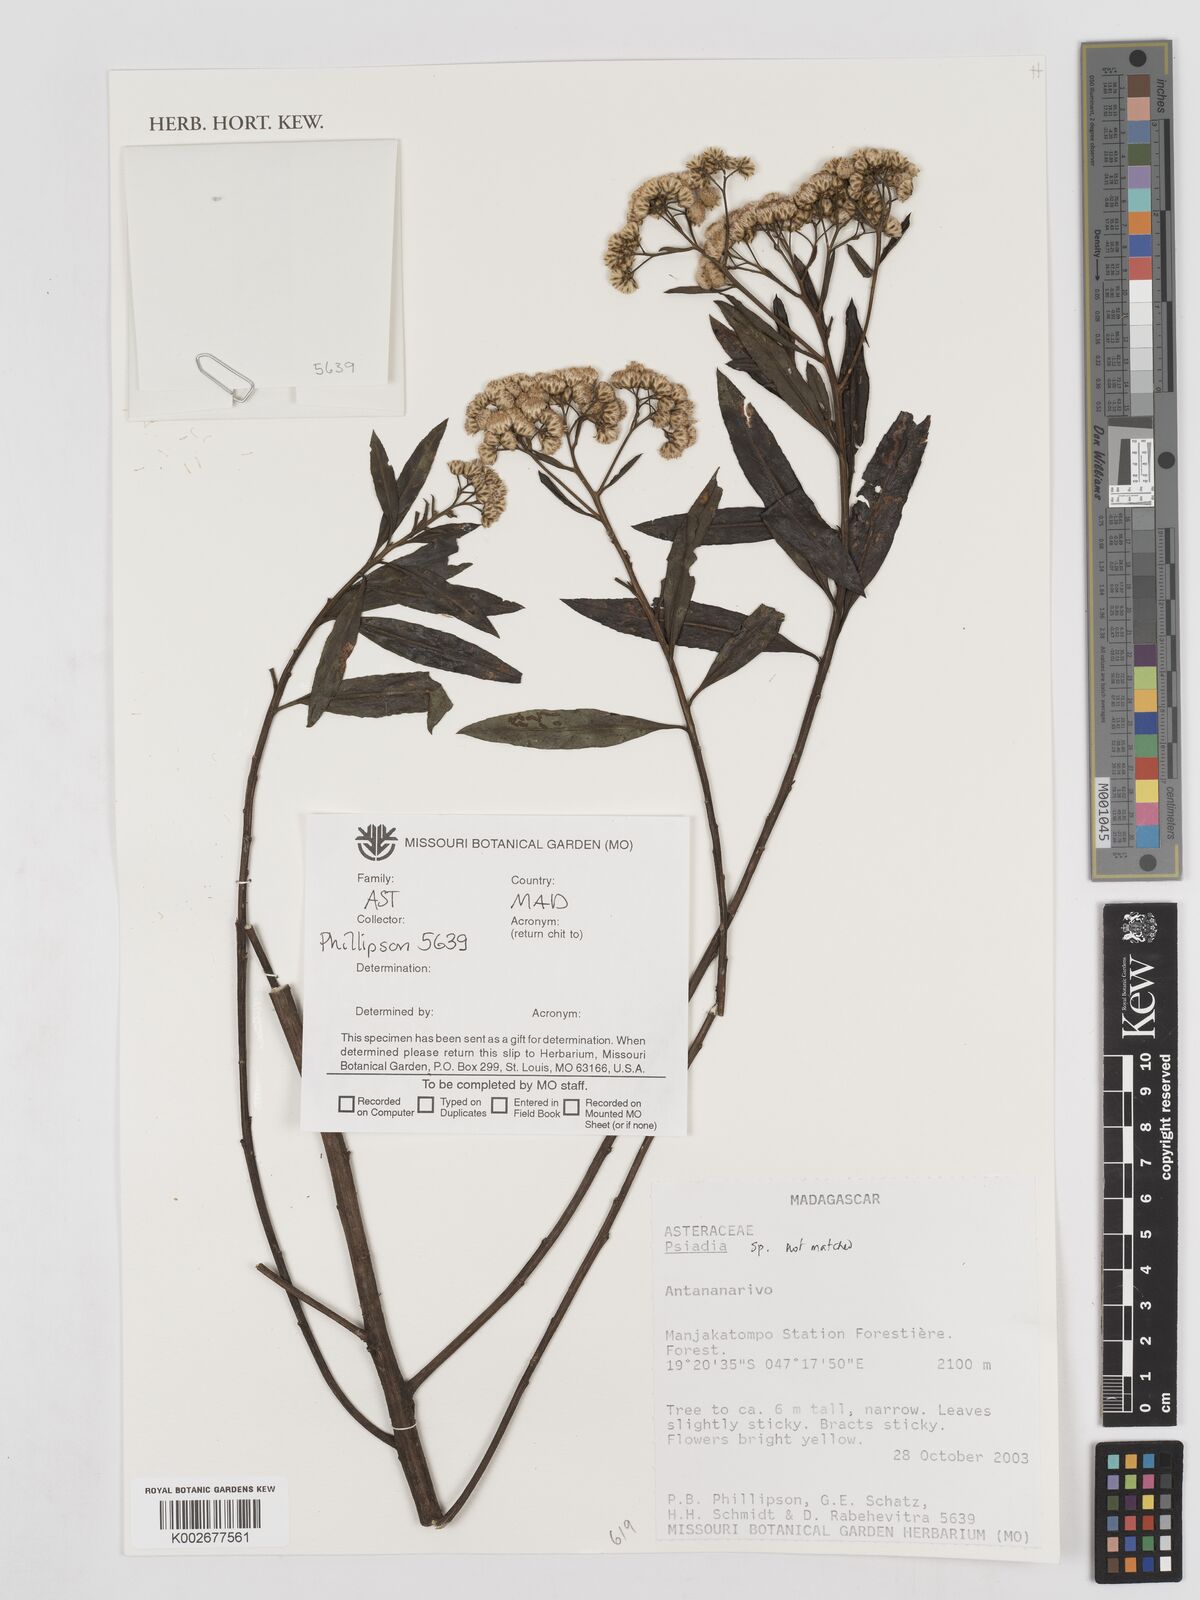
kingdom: Plantae
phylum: Tracheophyta
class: Magnoliopsida
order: Asterales
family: Asteraceae
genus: Psiadia
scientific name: Psiadia
